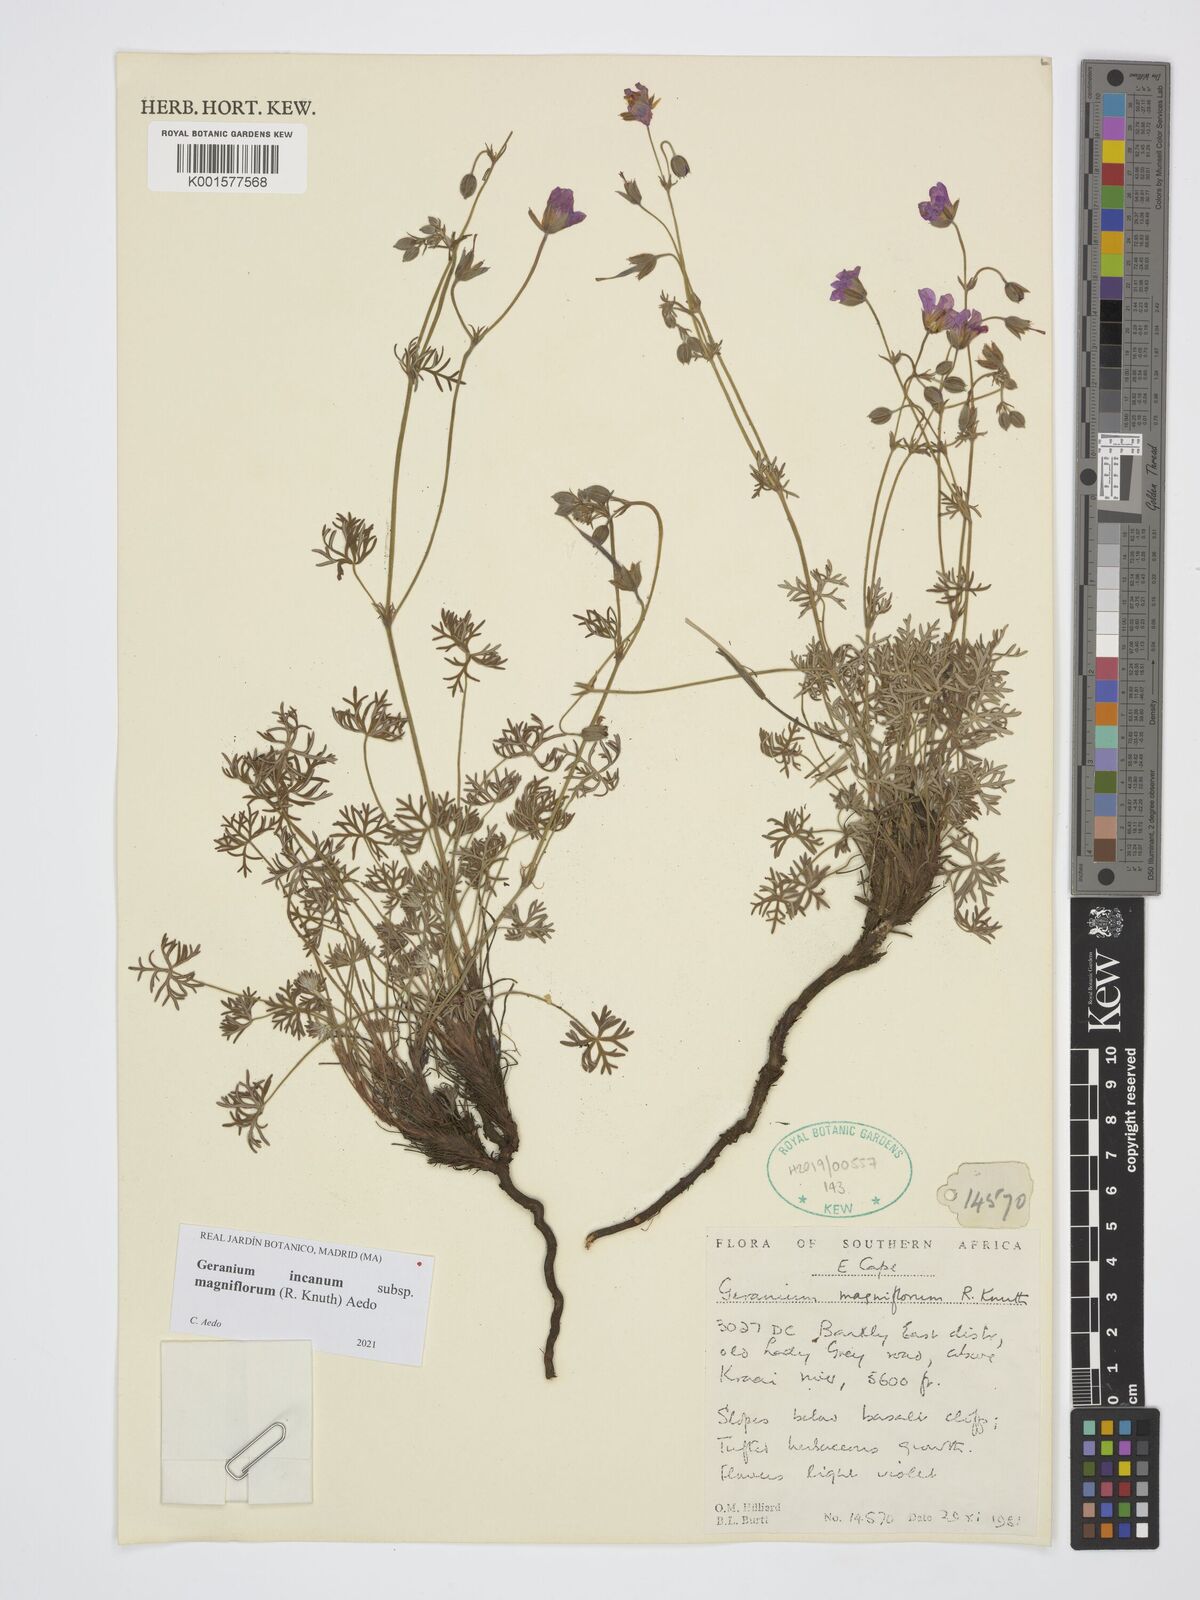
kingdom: Plantae
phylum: Tracheophyta
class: Magnoliopsida
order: Geraniales
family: Geraniaceae
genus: Geranium
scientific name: Geranium incanum
